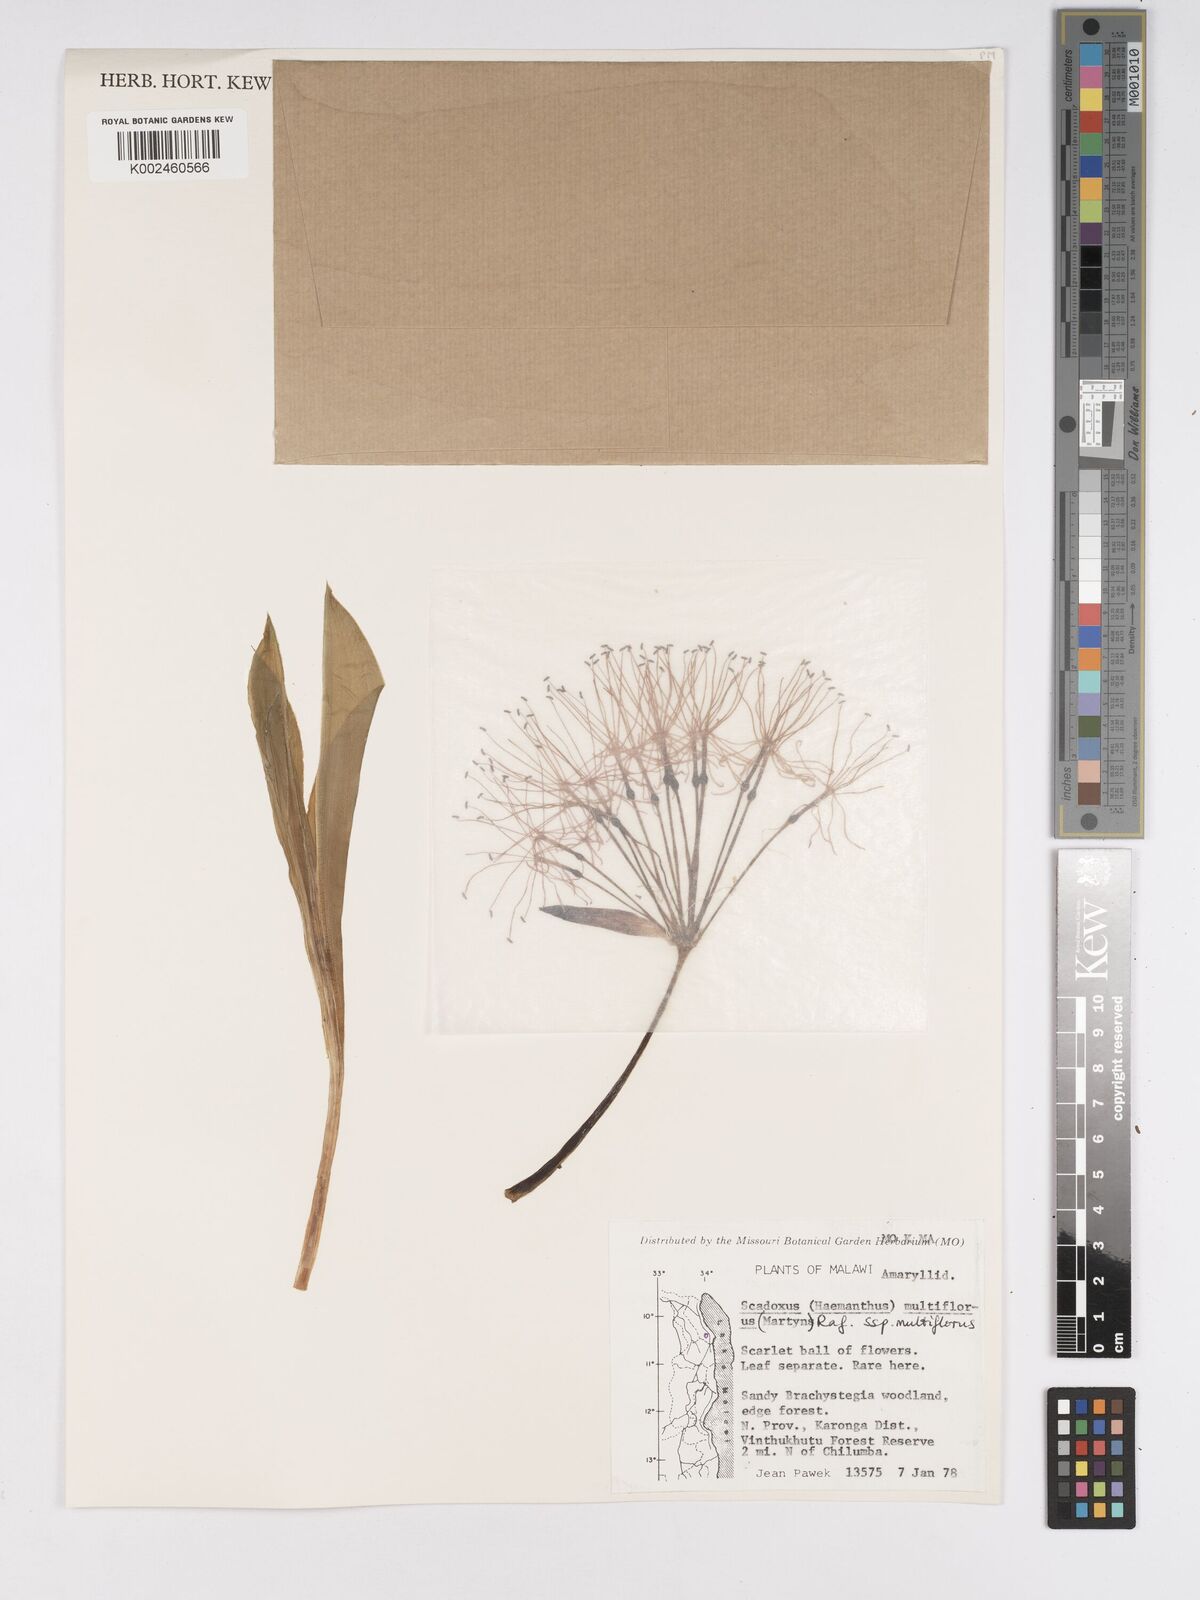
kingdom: Plantae
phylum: Tracheophyta
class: Liliopsida
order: Asparagales
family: Amaryllidaceae
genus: Scadoxus
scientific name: Scadoxus multiflorus
